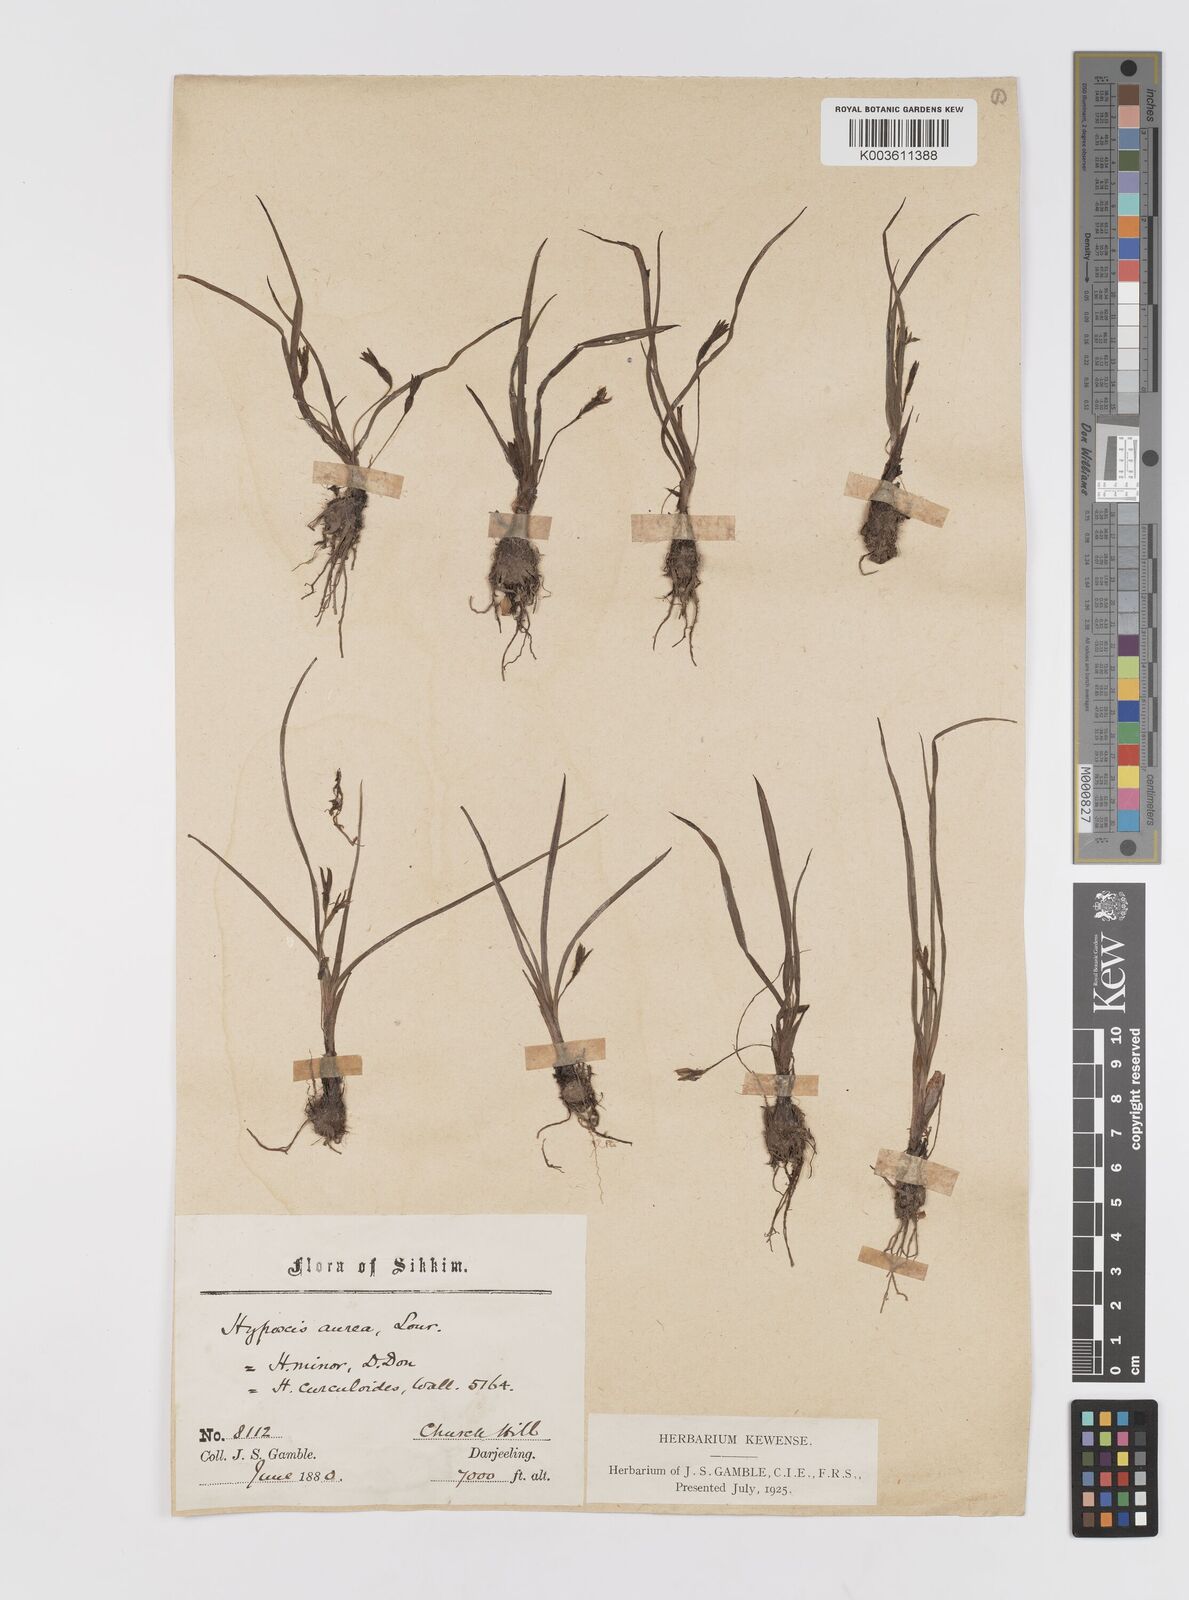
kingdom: Plantae
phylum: Tracheophyta
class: Liliopsida
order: Asparagales
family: Hypoxidaceae
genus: Hypoxis
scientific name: Hypoxis aurea
